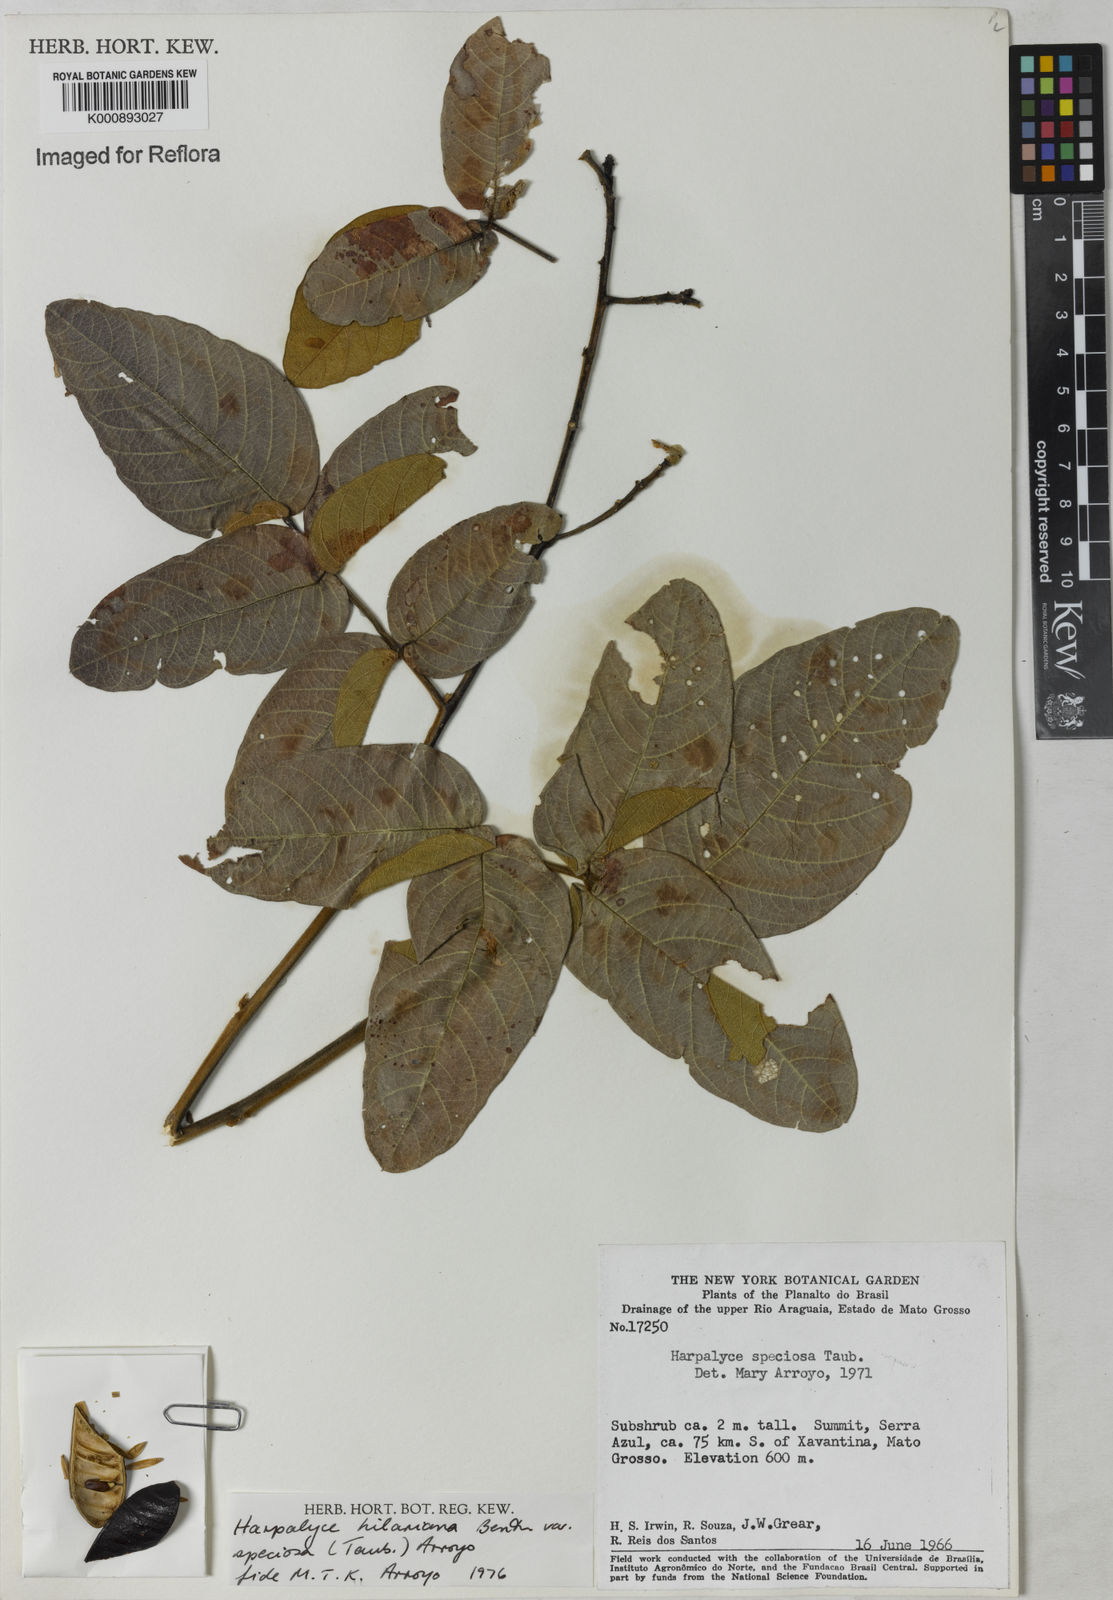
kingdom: Plantae
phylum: Tracheophyta
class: Magnoliopsida
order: Fabales
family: Fabaceae
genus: Harpalyce
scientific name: Harpalyce speciosa
